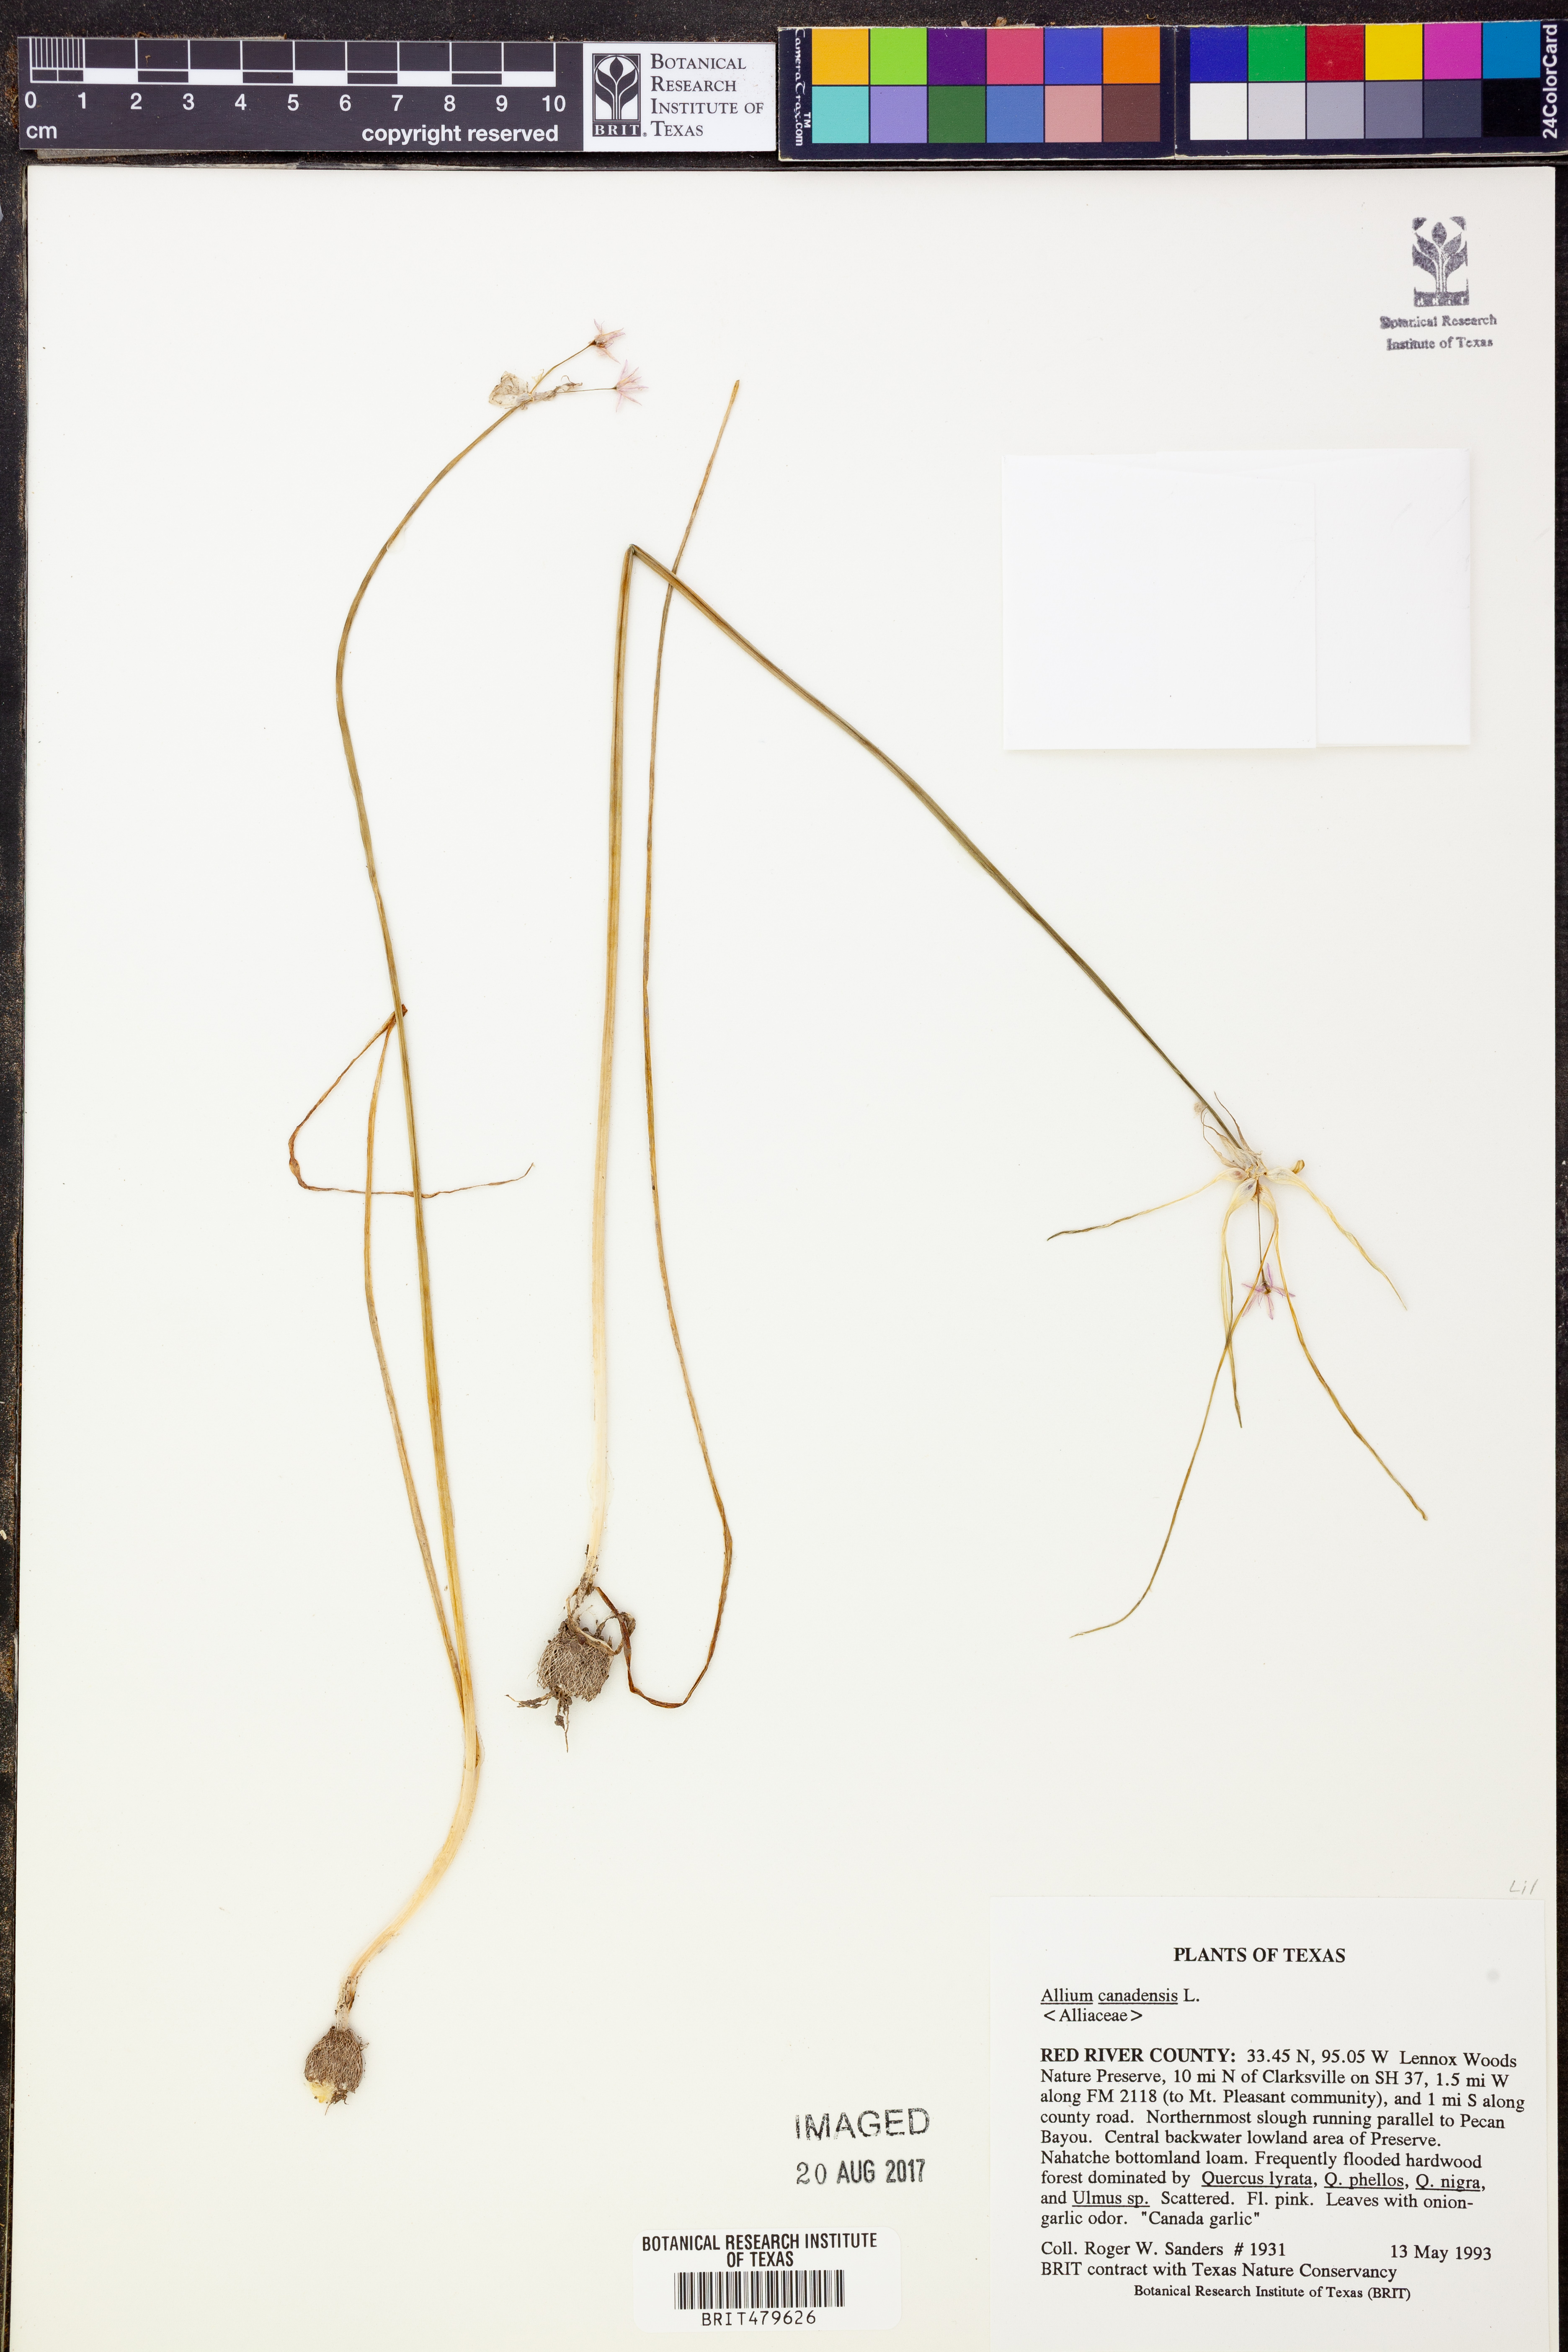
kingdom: Plantae
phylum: Tracheophyta
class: Liliopsida
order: Asparagales
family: Amaryllidaceae
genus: Allium
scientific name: Allium canadense
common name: Meadow garlic
